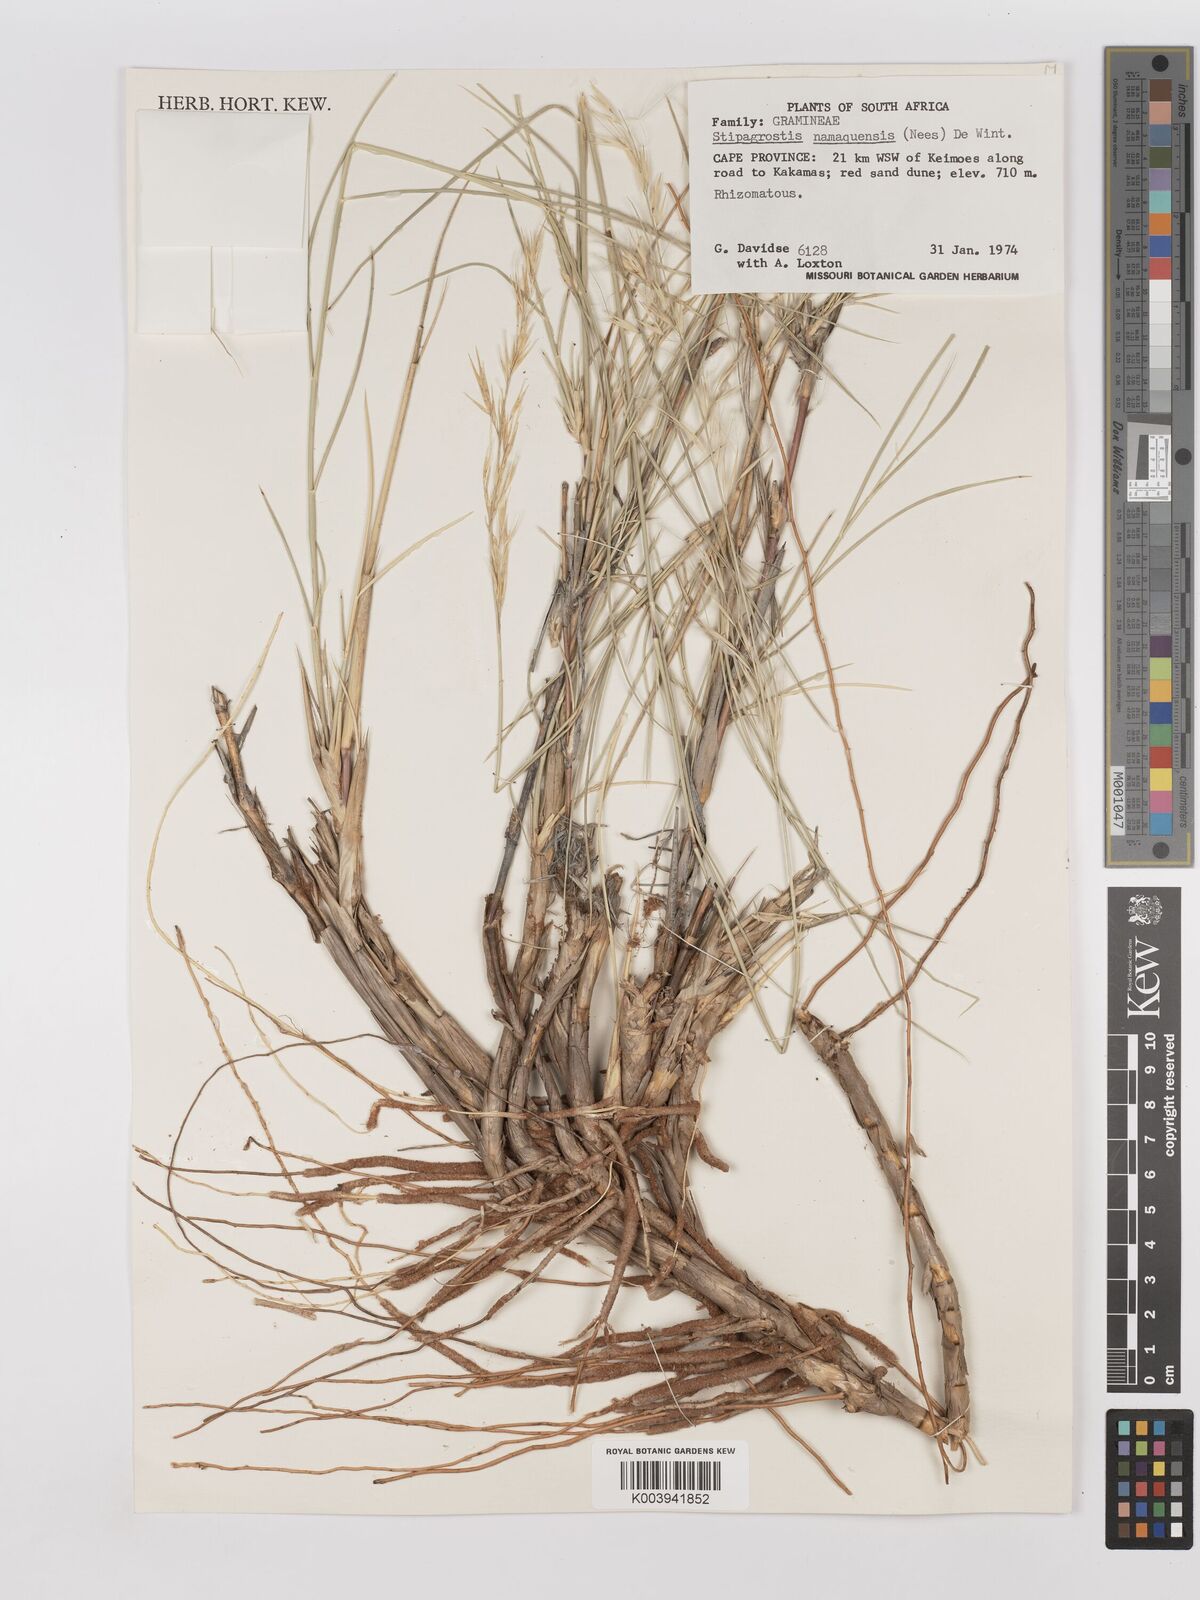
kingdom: Plantae
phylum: Tracheophyta
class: Liliopsida
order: Poales
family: Poaceae
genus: Stipagrostis
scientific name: Stipagrostis namaquensis
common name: River bushman grass
